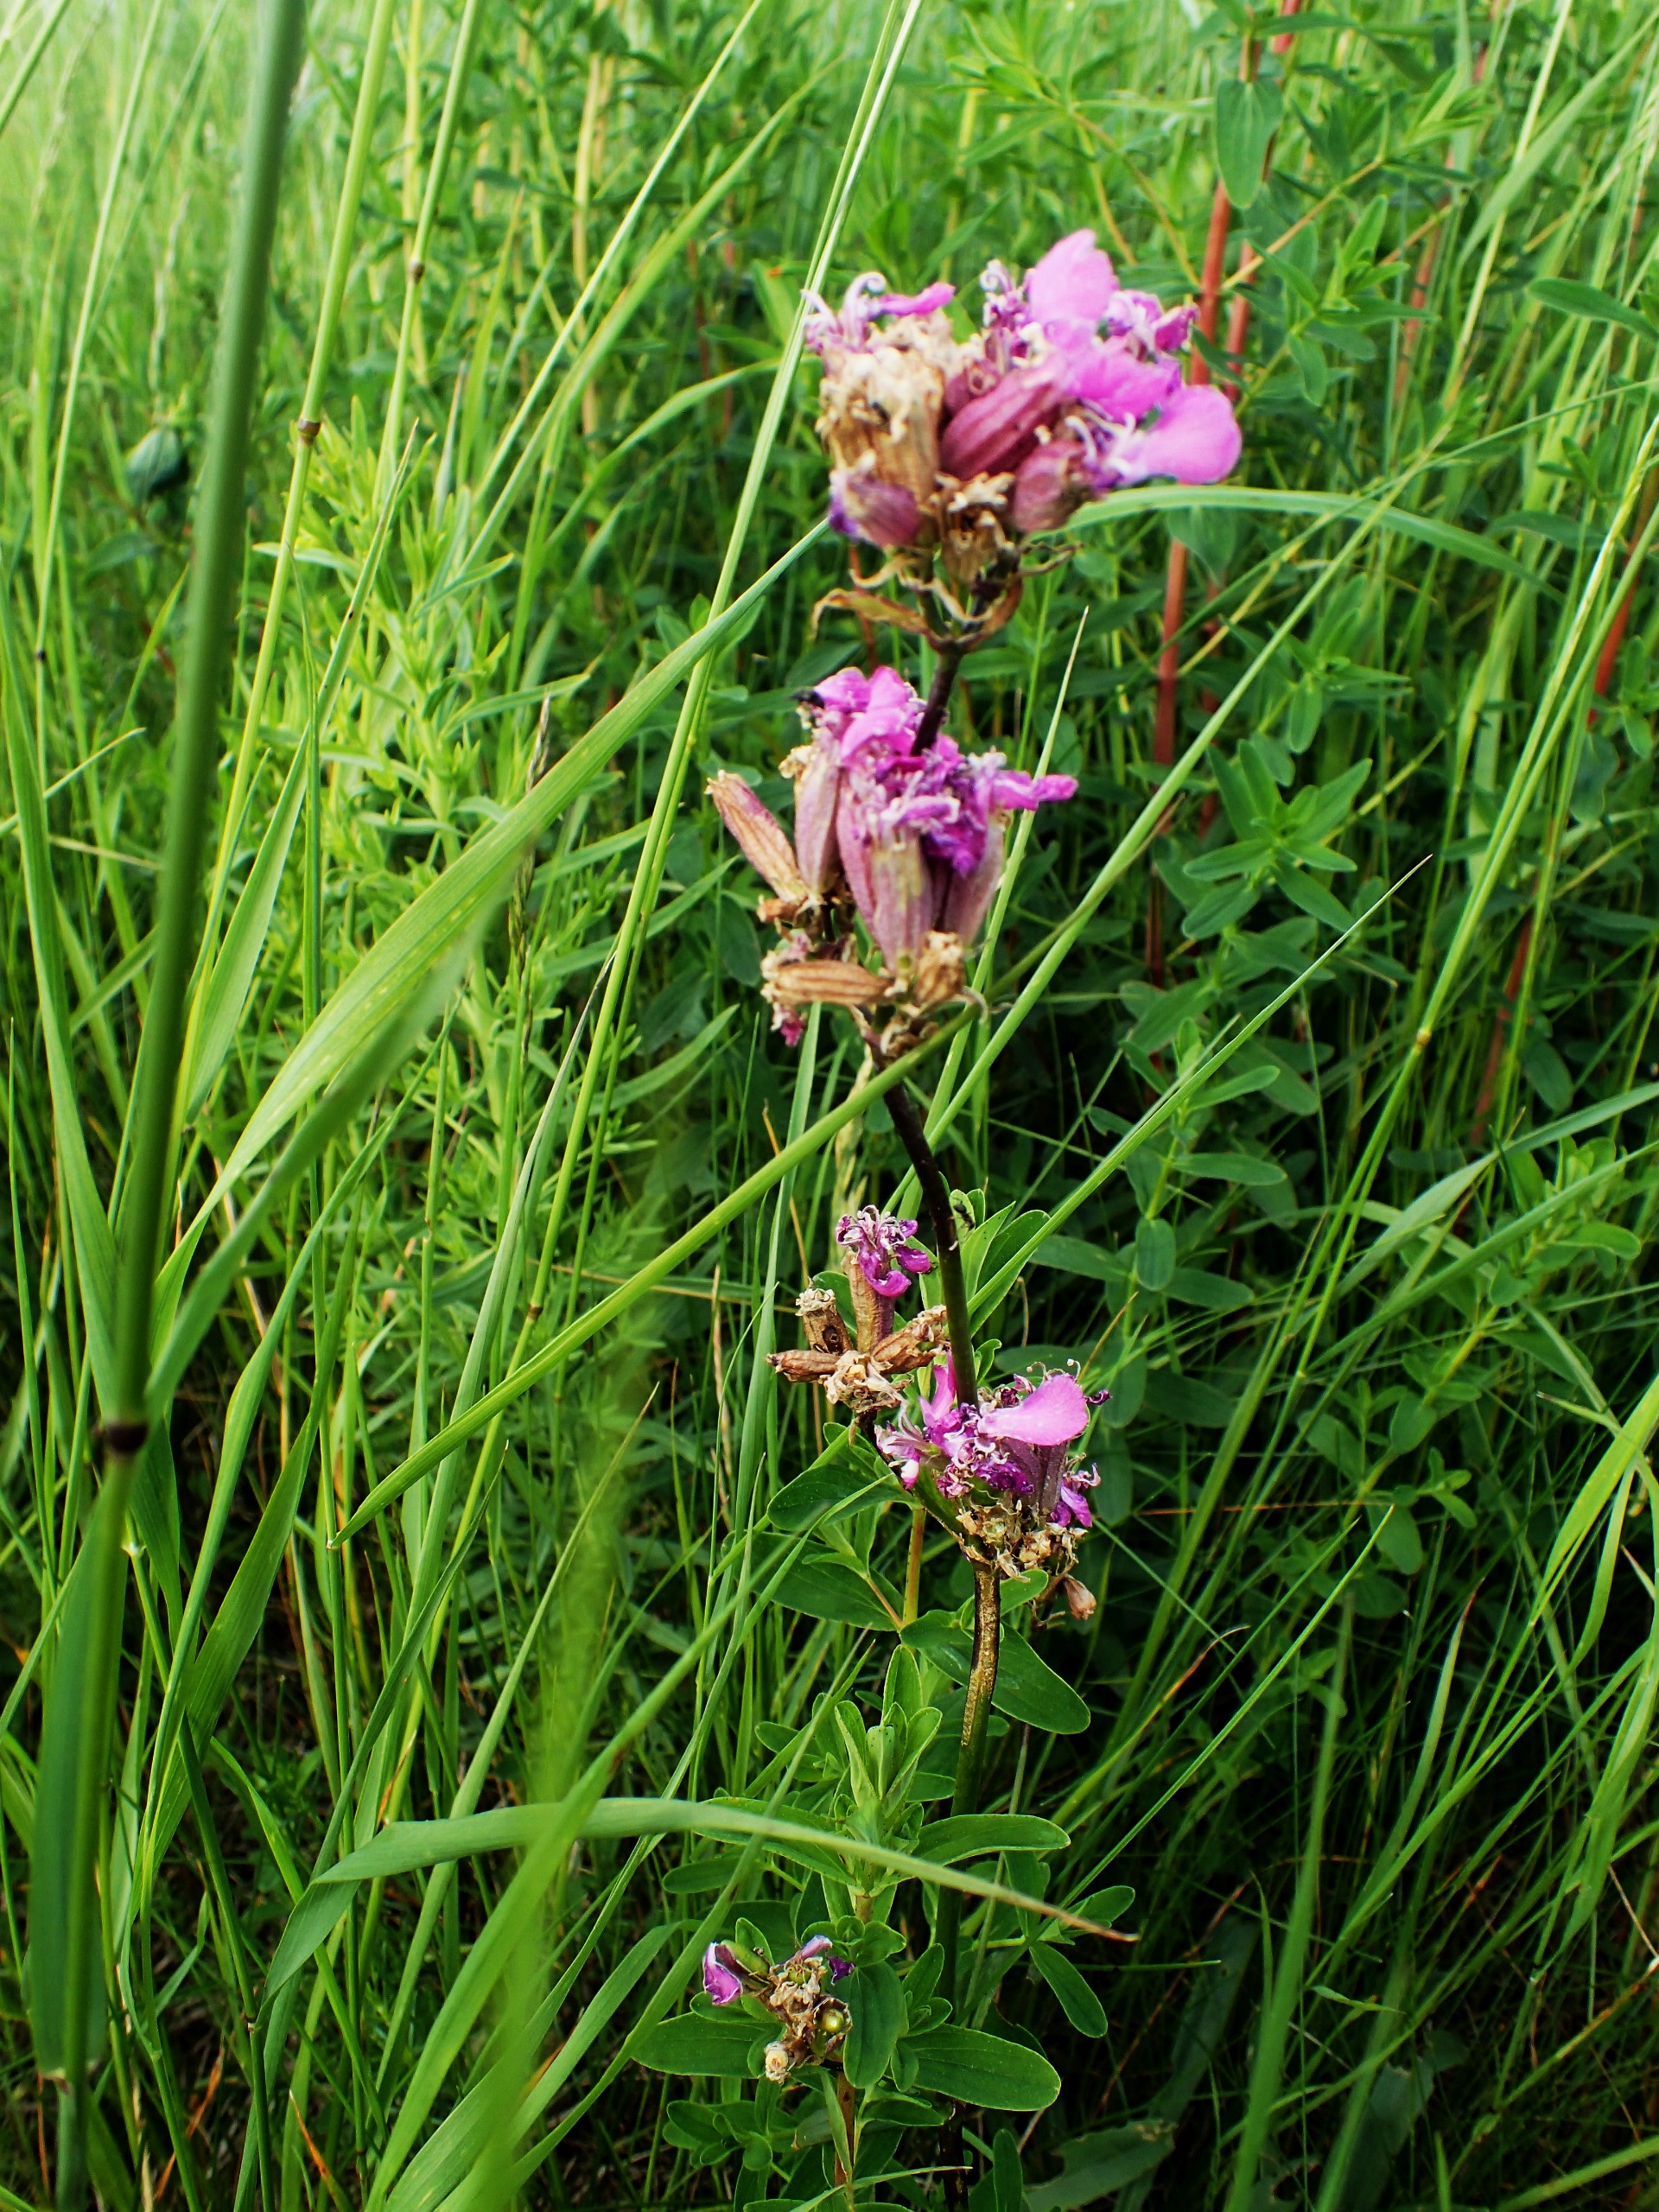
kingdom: Plantae
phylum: Tracheophyta
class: Magnoliopsida
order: Caryophyllales
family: Caryophyllaceae
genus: Viscaria
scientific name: Viscaria vulgaris
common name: Tjærenellike
